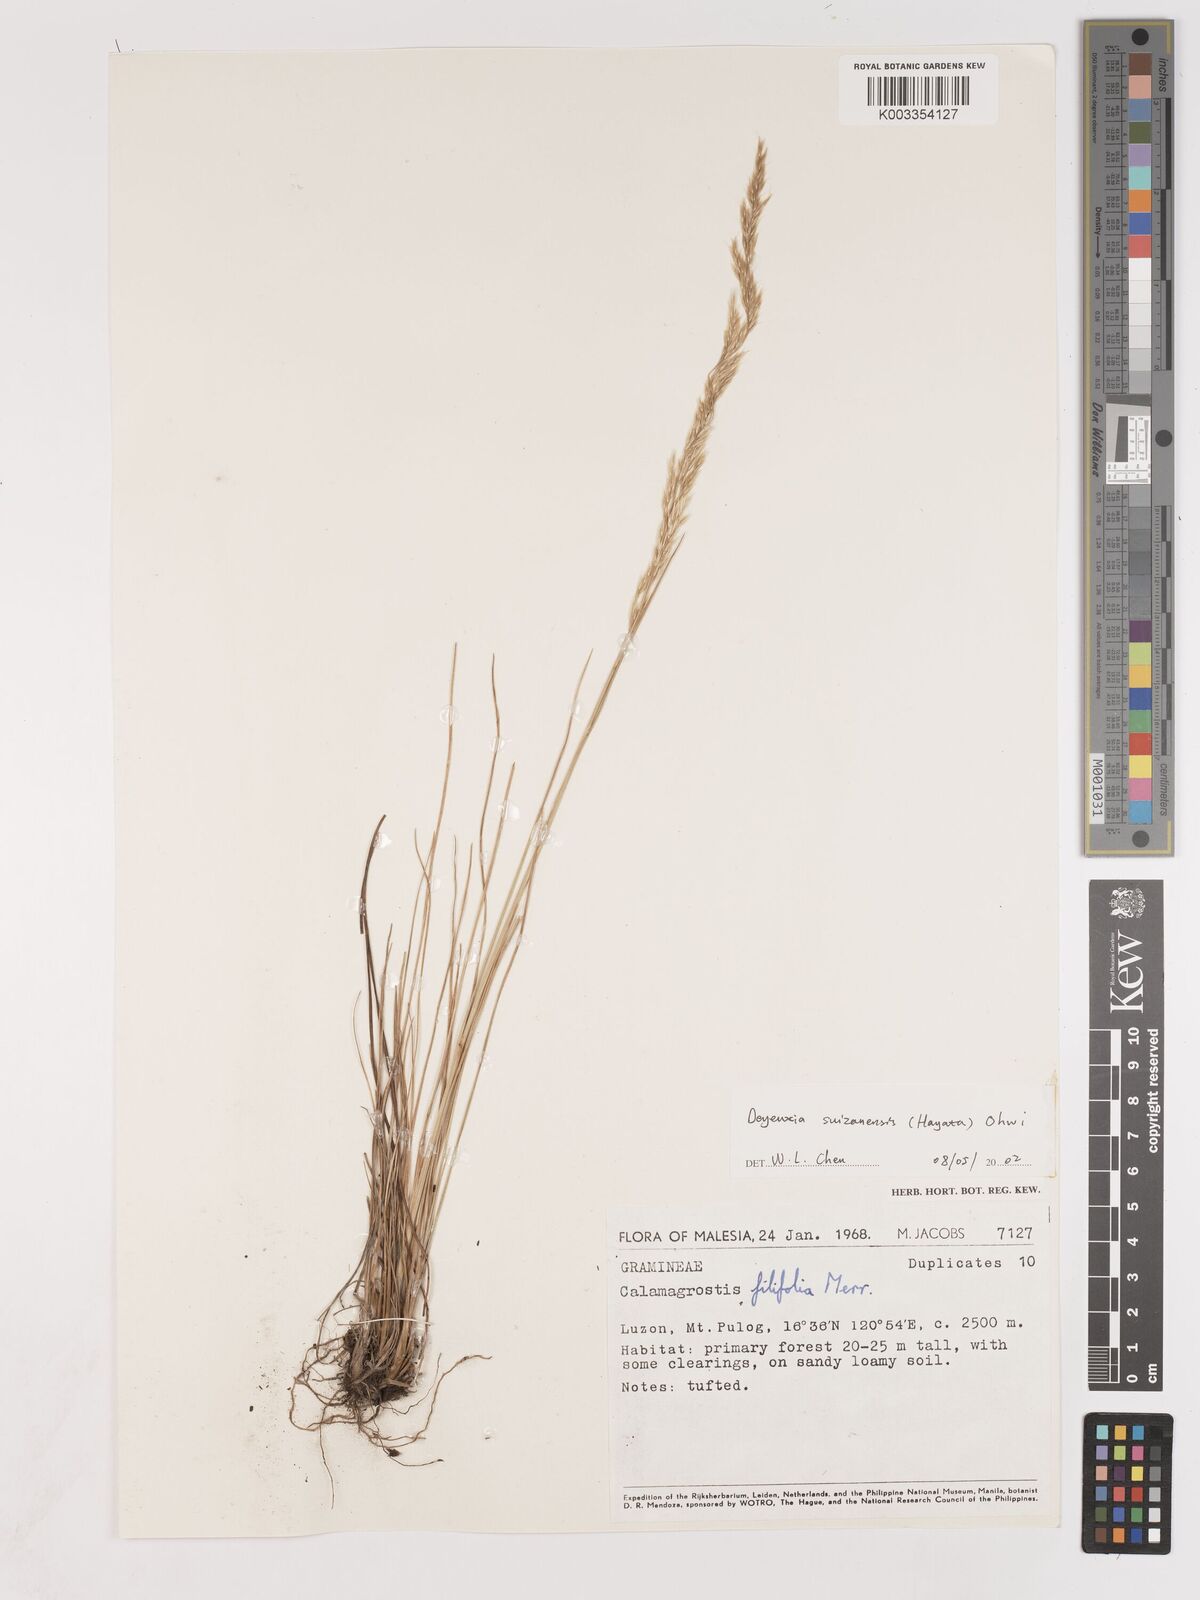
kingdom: Plantae
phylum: Tracheophyta
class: Liliopsida
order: Poales
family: Poaceae
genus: Calamagrostis
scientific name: Calamagrostis filifolia
